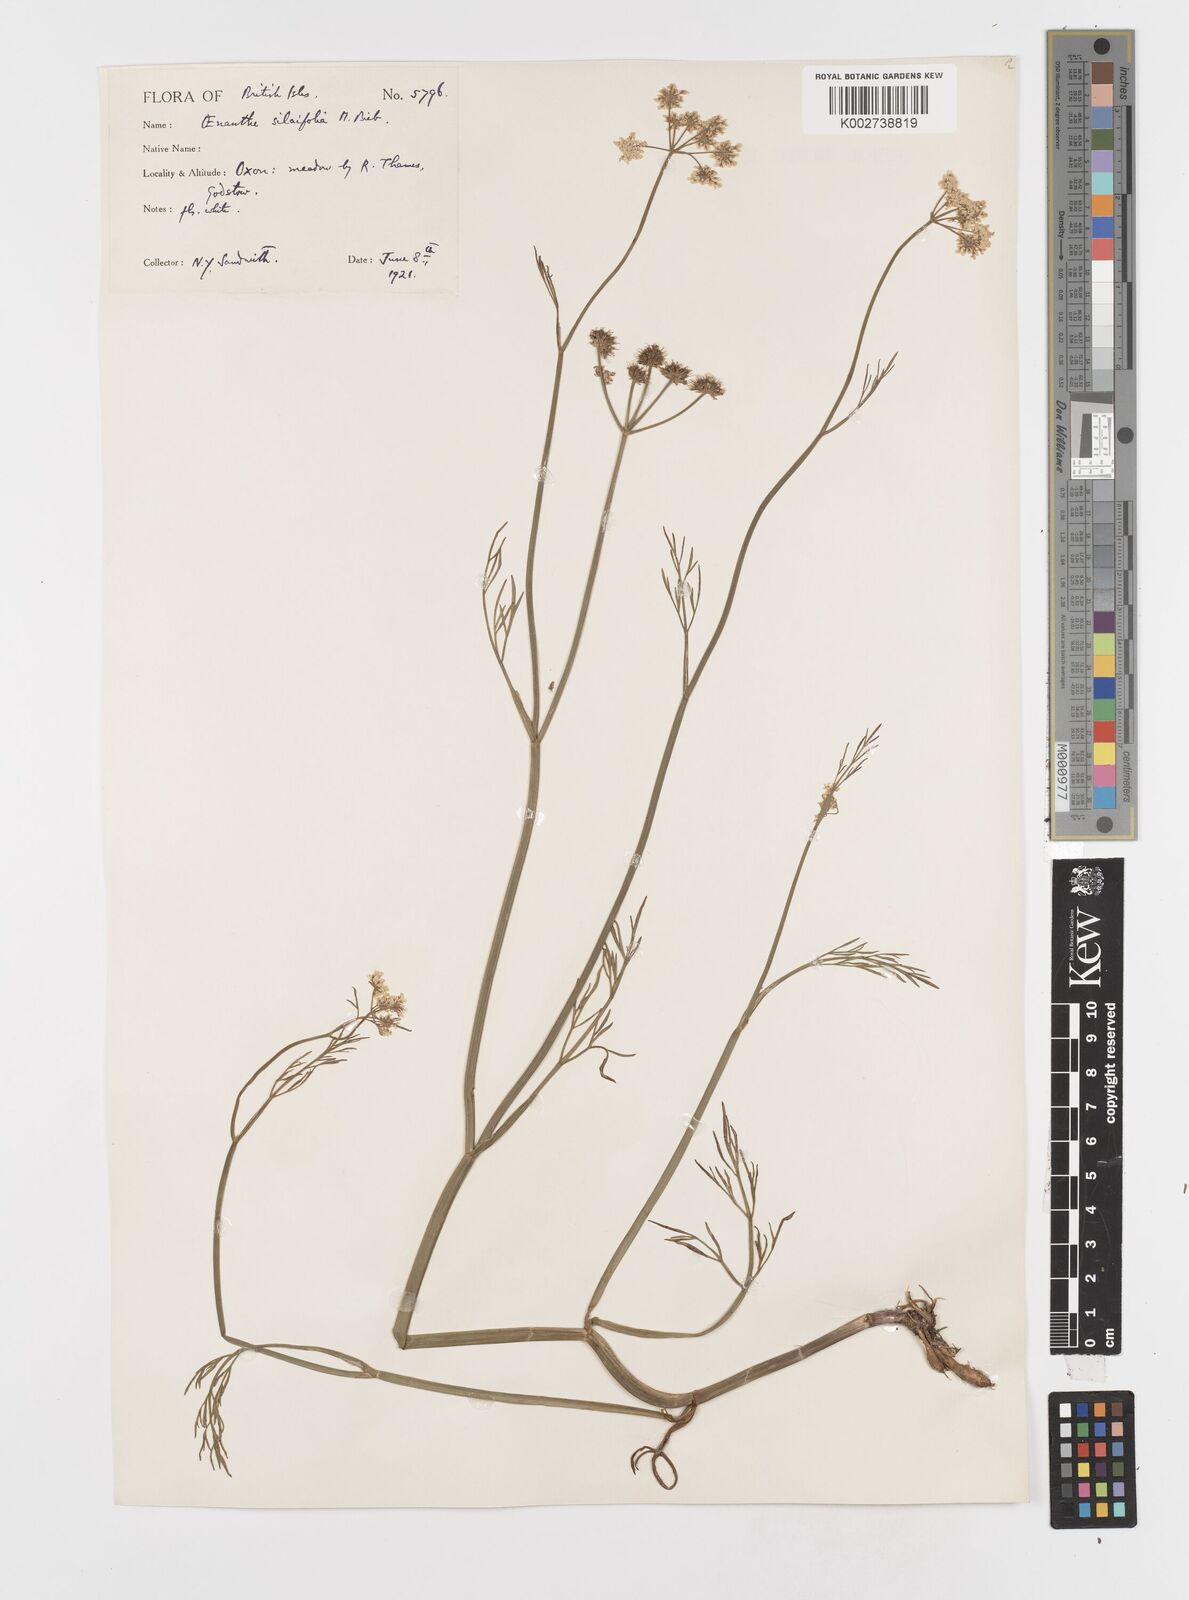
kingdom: Plantae
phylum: Tracheophyta
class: Magnoliopsida
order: Apiales
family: Apiaceae
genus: Oenanthe
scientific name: Oenanthe silaifolia
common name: Narrow-leaved water-dropwort
